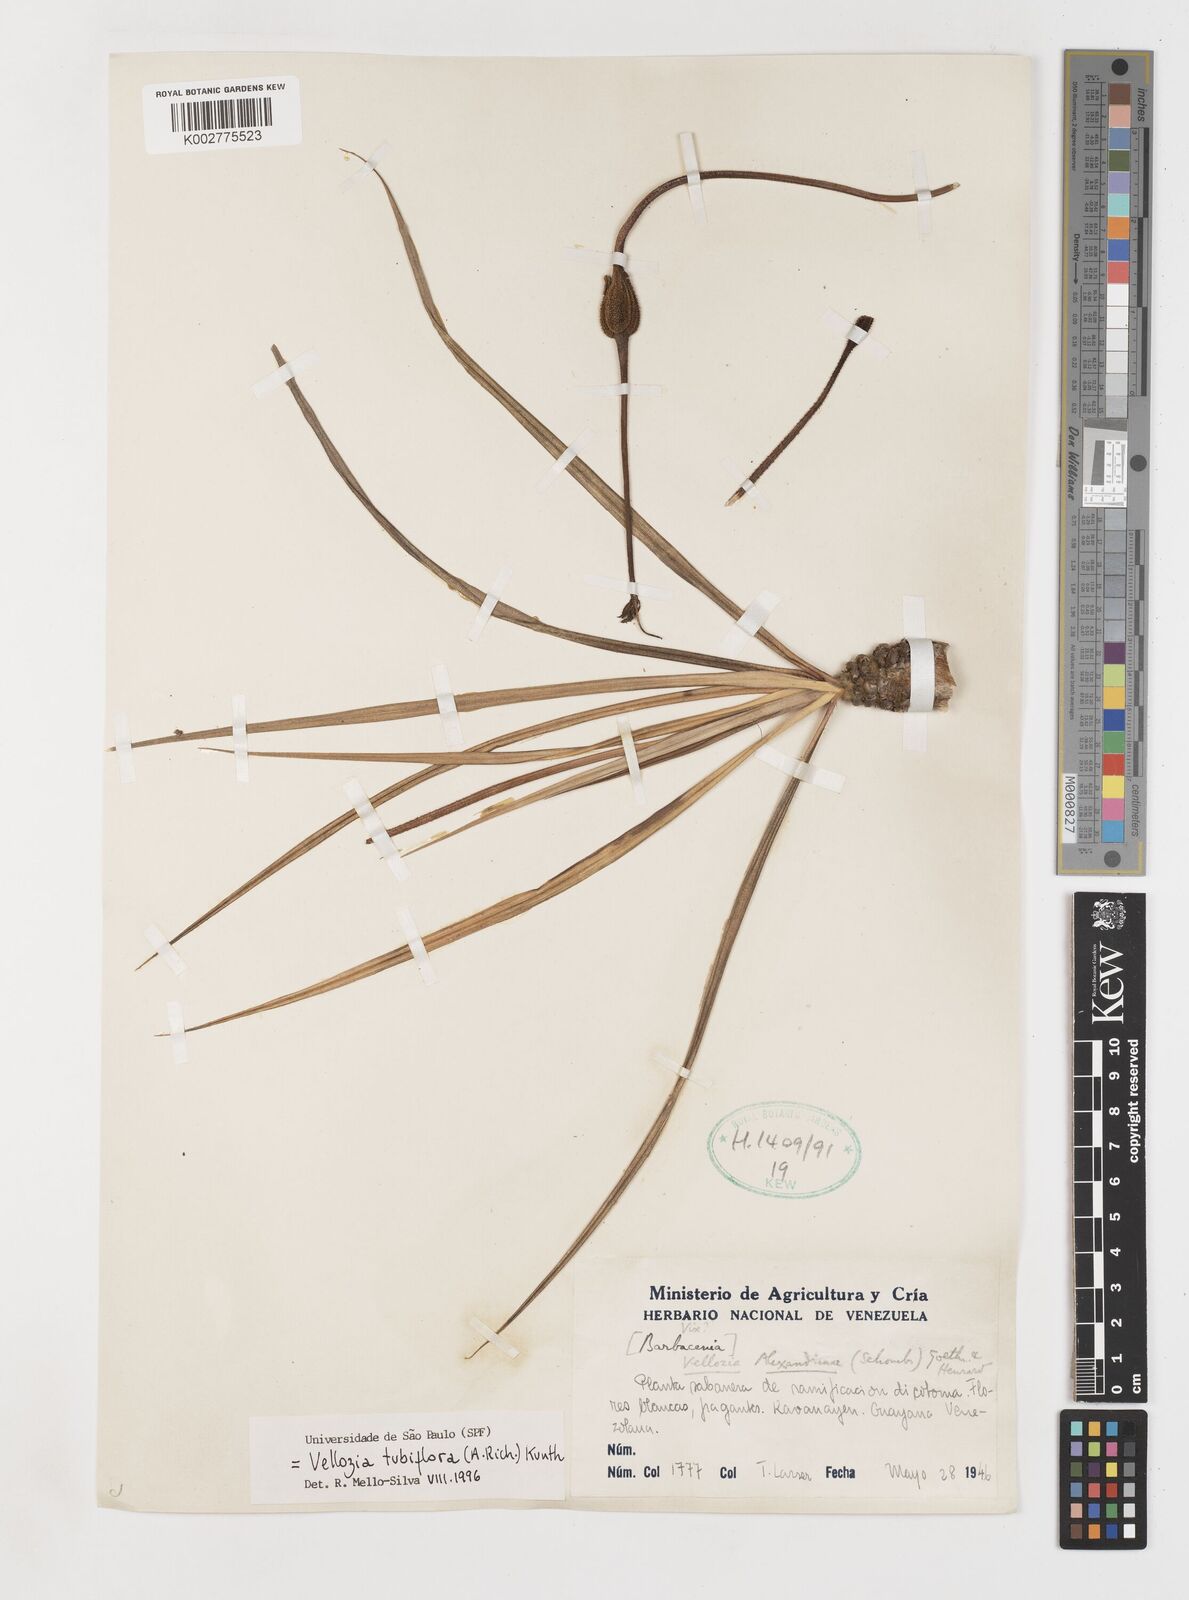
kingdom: Plantae
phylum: Tracheophyta
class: Liliopsida
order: Pandanales
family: Velloziaceae
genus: Vellozia
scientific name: Vellozia tubiflora
